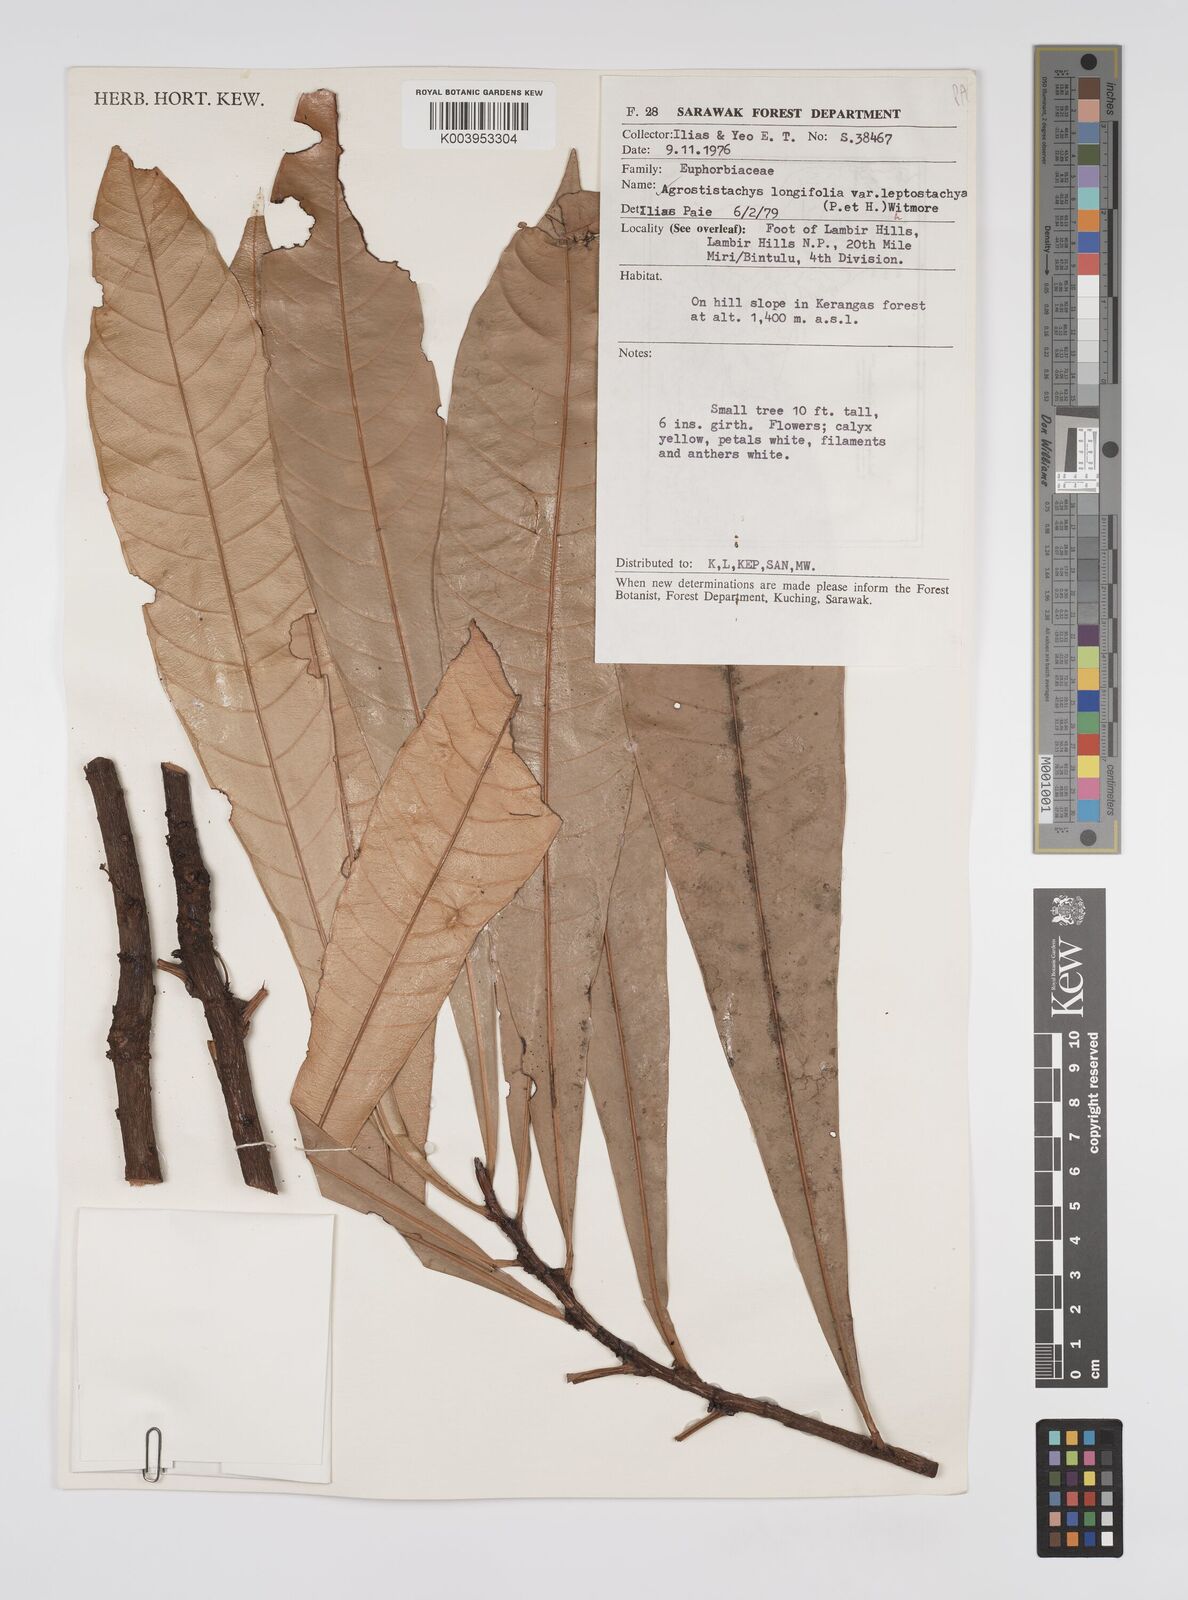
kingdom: Plantae
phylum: Tracheophyta
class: Magnoliopsida
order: Malpighiales
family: Euphorbiaceae
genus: Agrostistachys
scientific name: Agrostistachys borneensis
